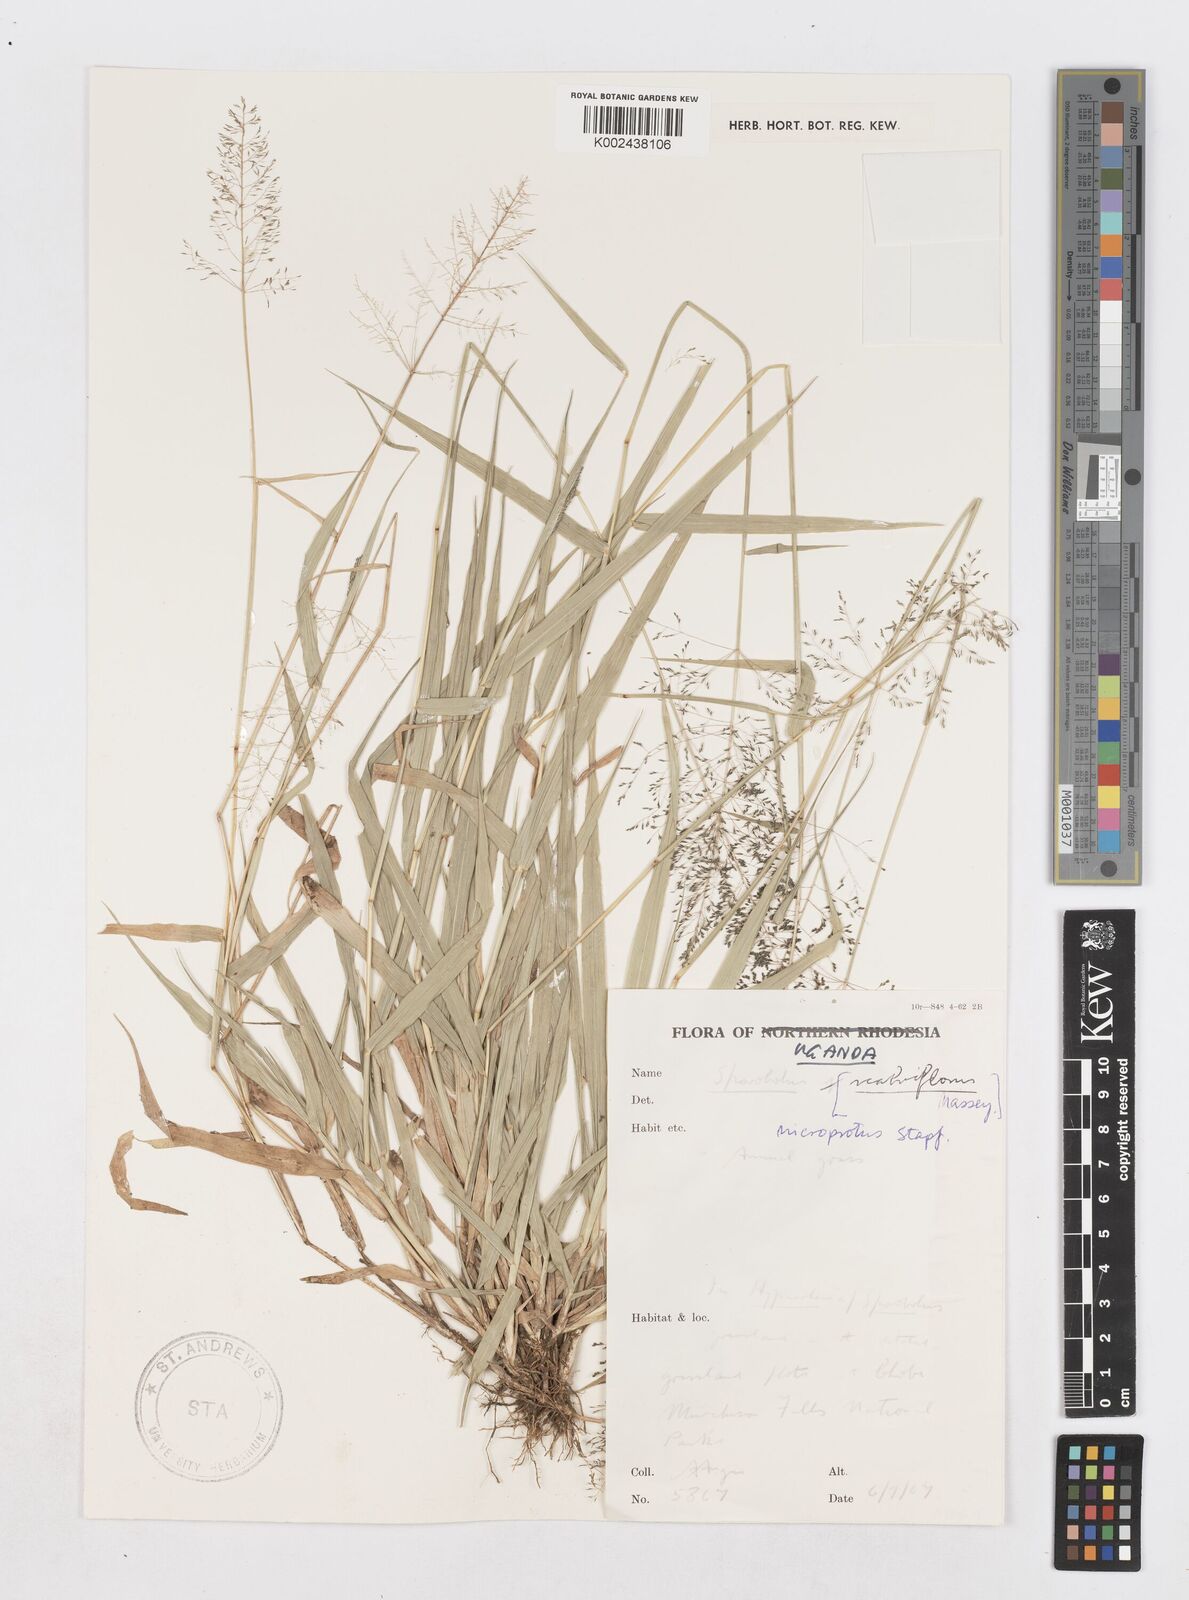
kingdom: Plantae
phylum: Tracheophyta
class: Liliopsida
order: Poales
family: Poaceae
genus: Sporobolus
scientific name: Sporobolus microprotus
